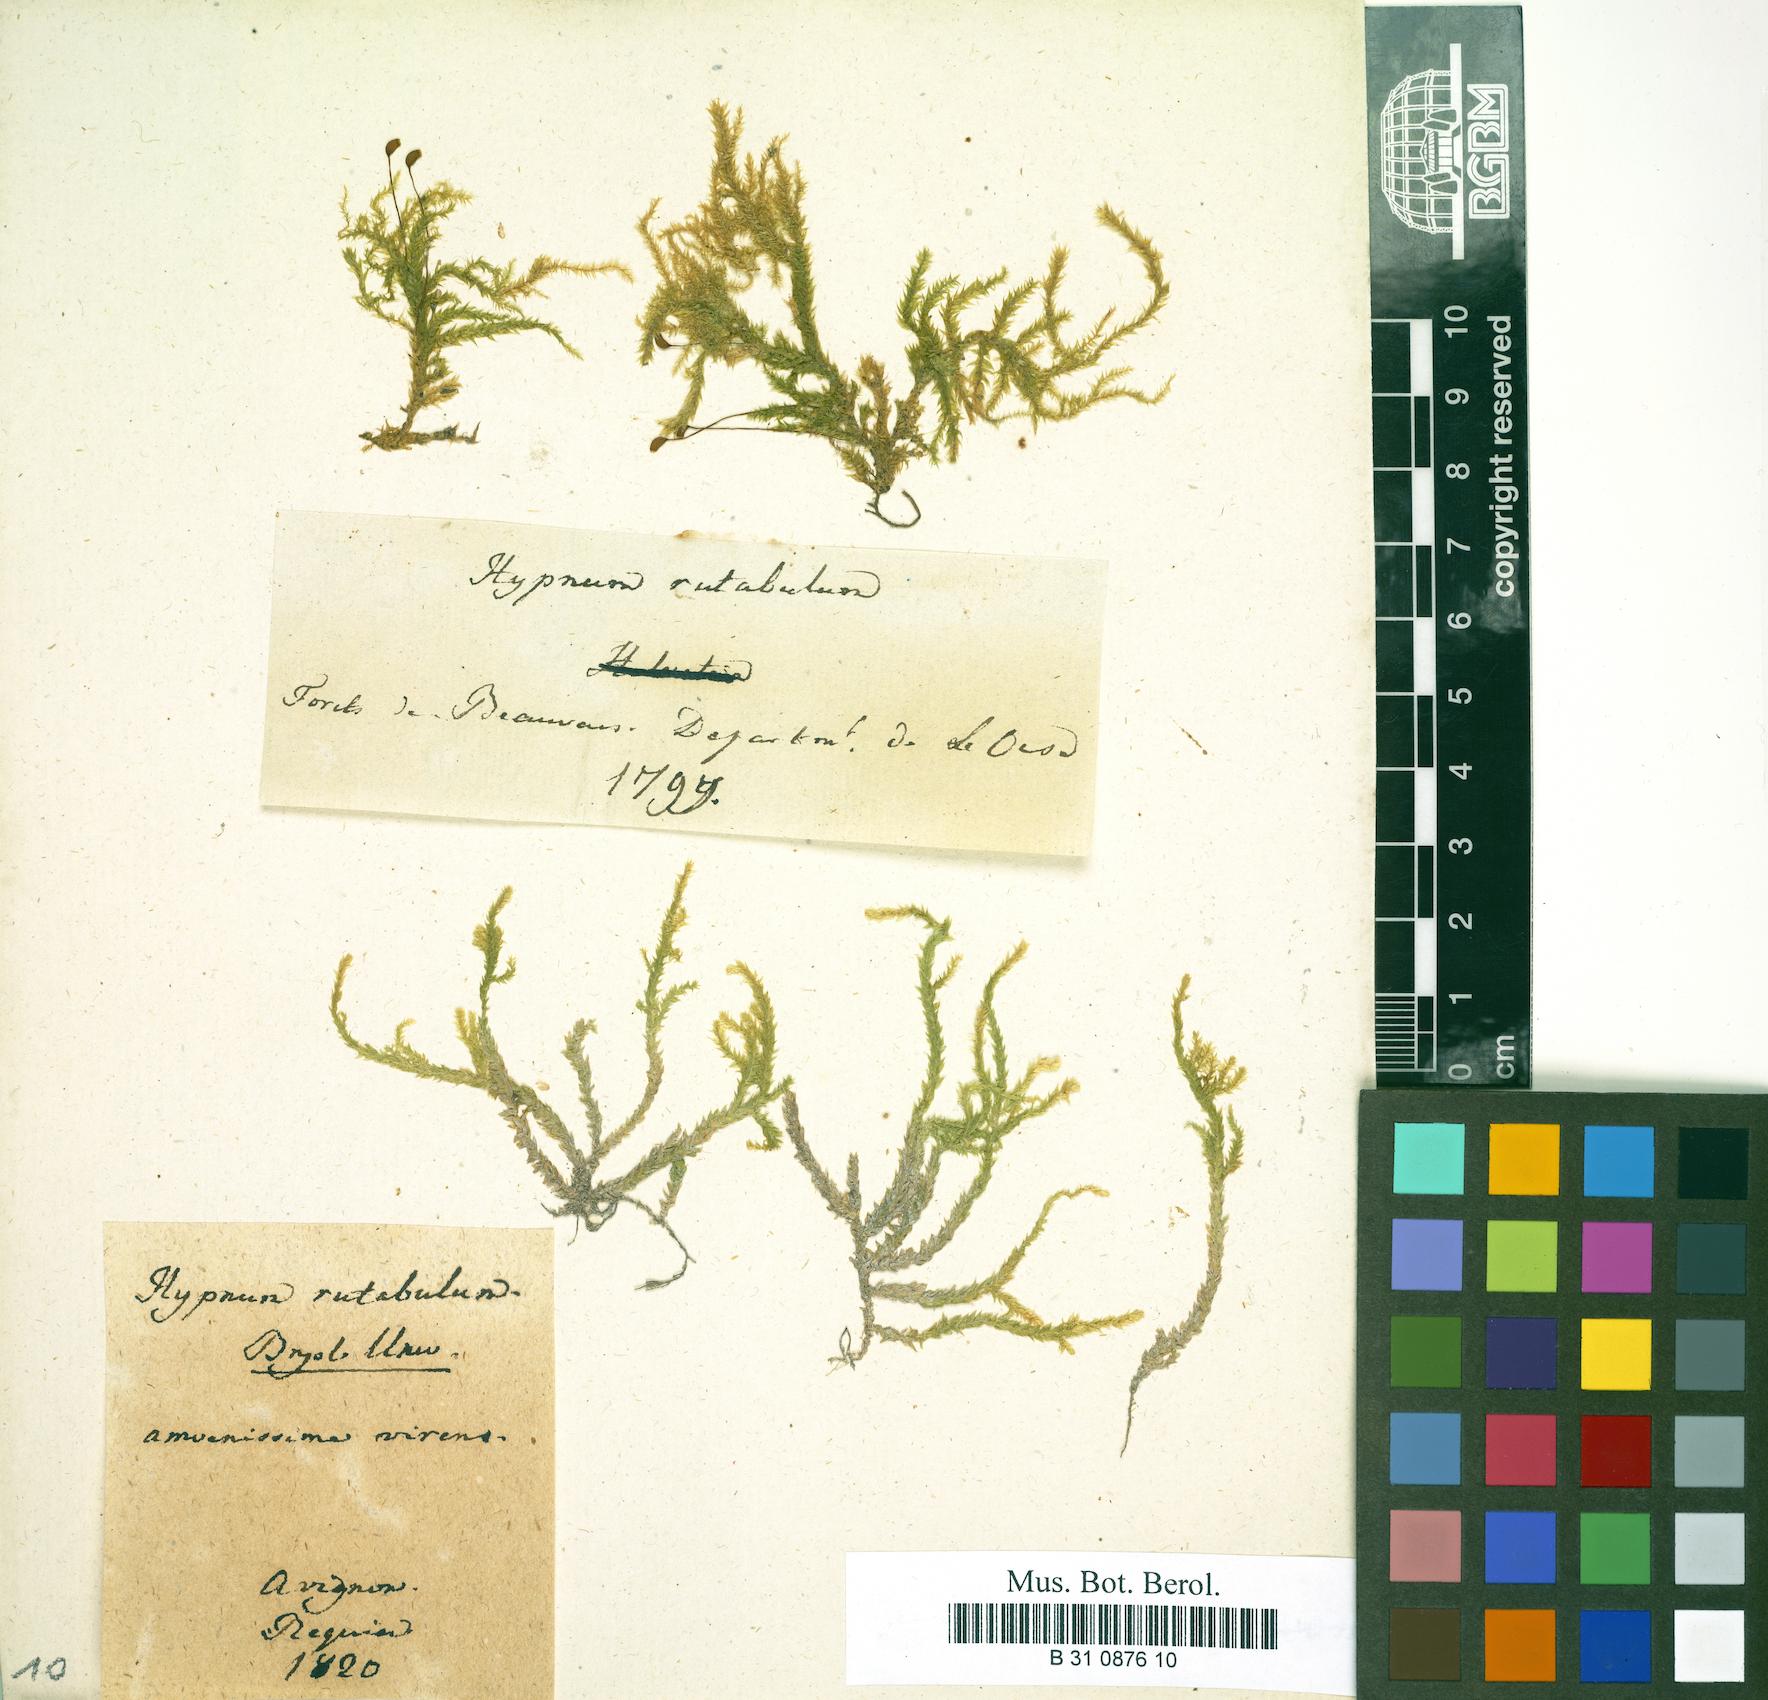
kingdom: Plantae
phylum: Bryophyta
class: Bryopsida
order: Hypnales
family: Brachytheciaceae
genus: Brachythecium
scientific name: Brachythecium rutabulum
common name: Rough-stalked feather-moss
